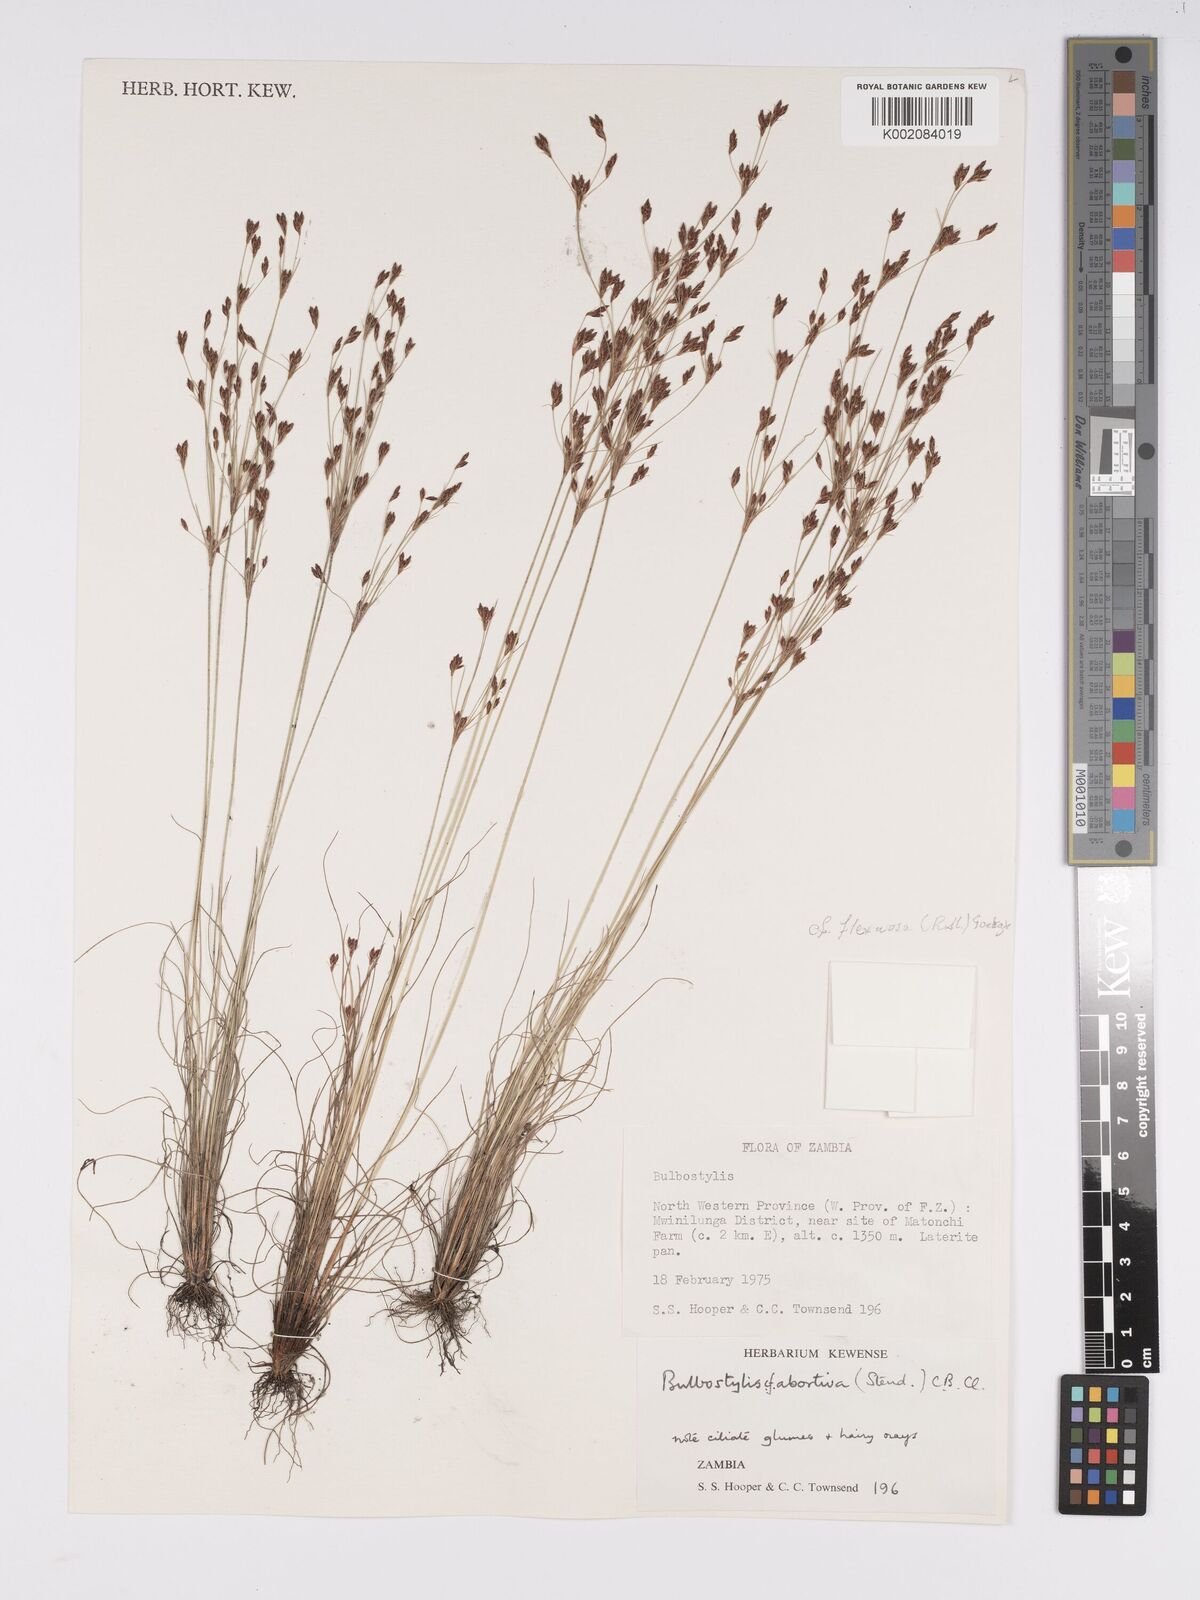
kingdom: Plantae
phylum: Tracheophyta
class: Liliopsida
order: Poales
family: Cyperaceae
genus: Bulbostylis
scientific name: Bulbostylis flexuosa
